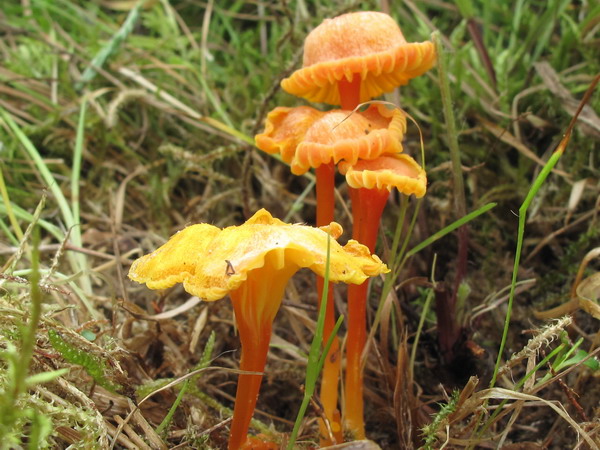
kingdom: Fungi
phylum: Basidiomycota
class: Agaricomycetes
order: Agaricales
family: Hygrophoraceae
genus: Hygrocybe
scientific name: Hygrocybe cantharellus
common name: kantarel-vokshat
